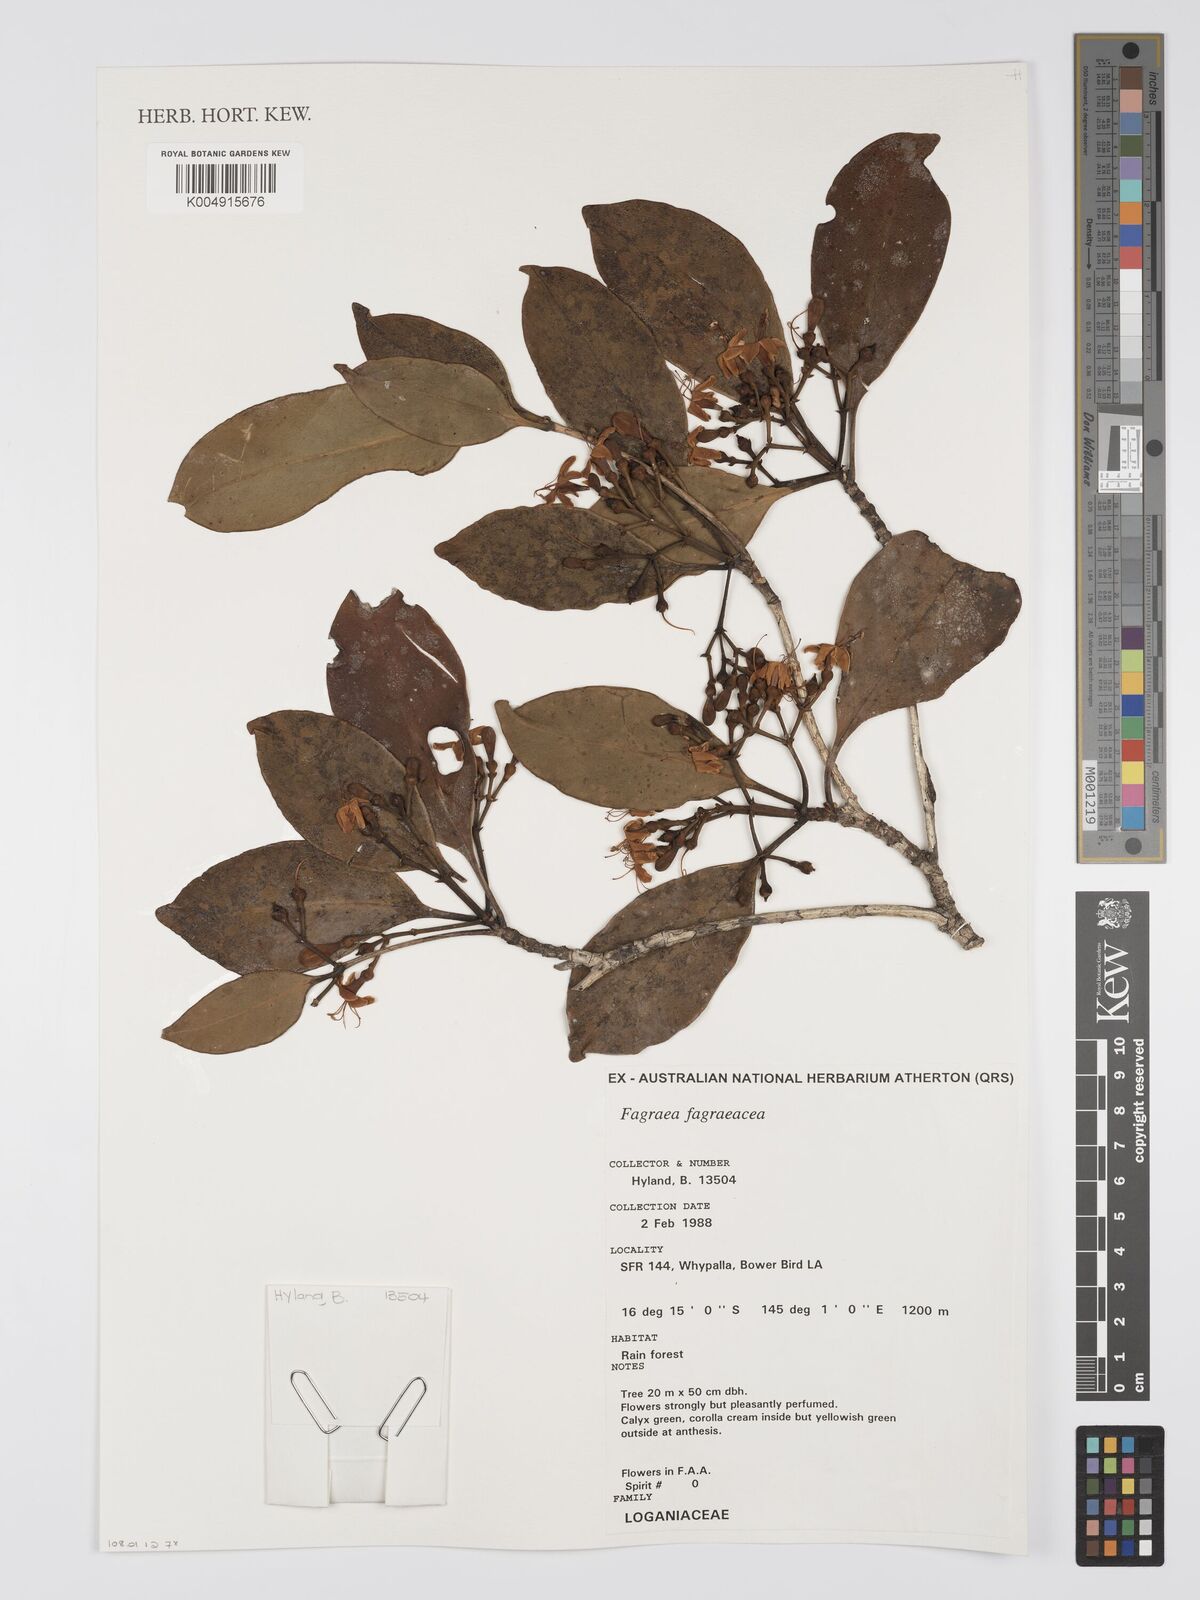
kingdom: Plantae
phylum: Tracheophyta
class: Magnoliopsida
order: Gentianales
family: Gentianaceae
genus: Fagraea
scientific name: Fagraea gracilipes
